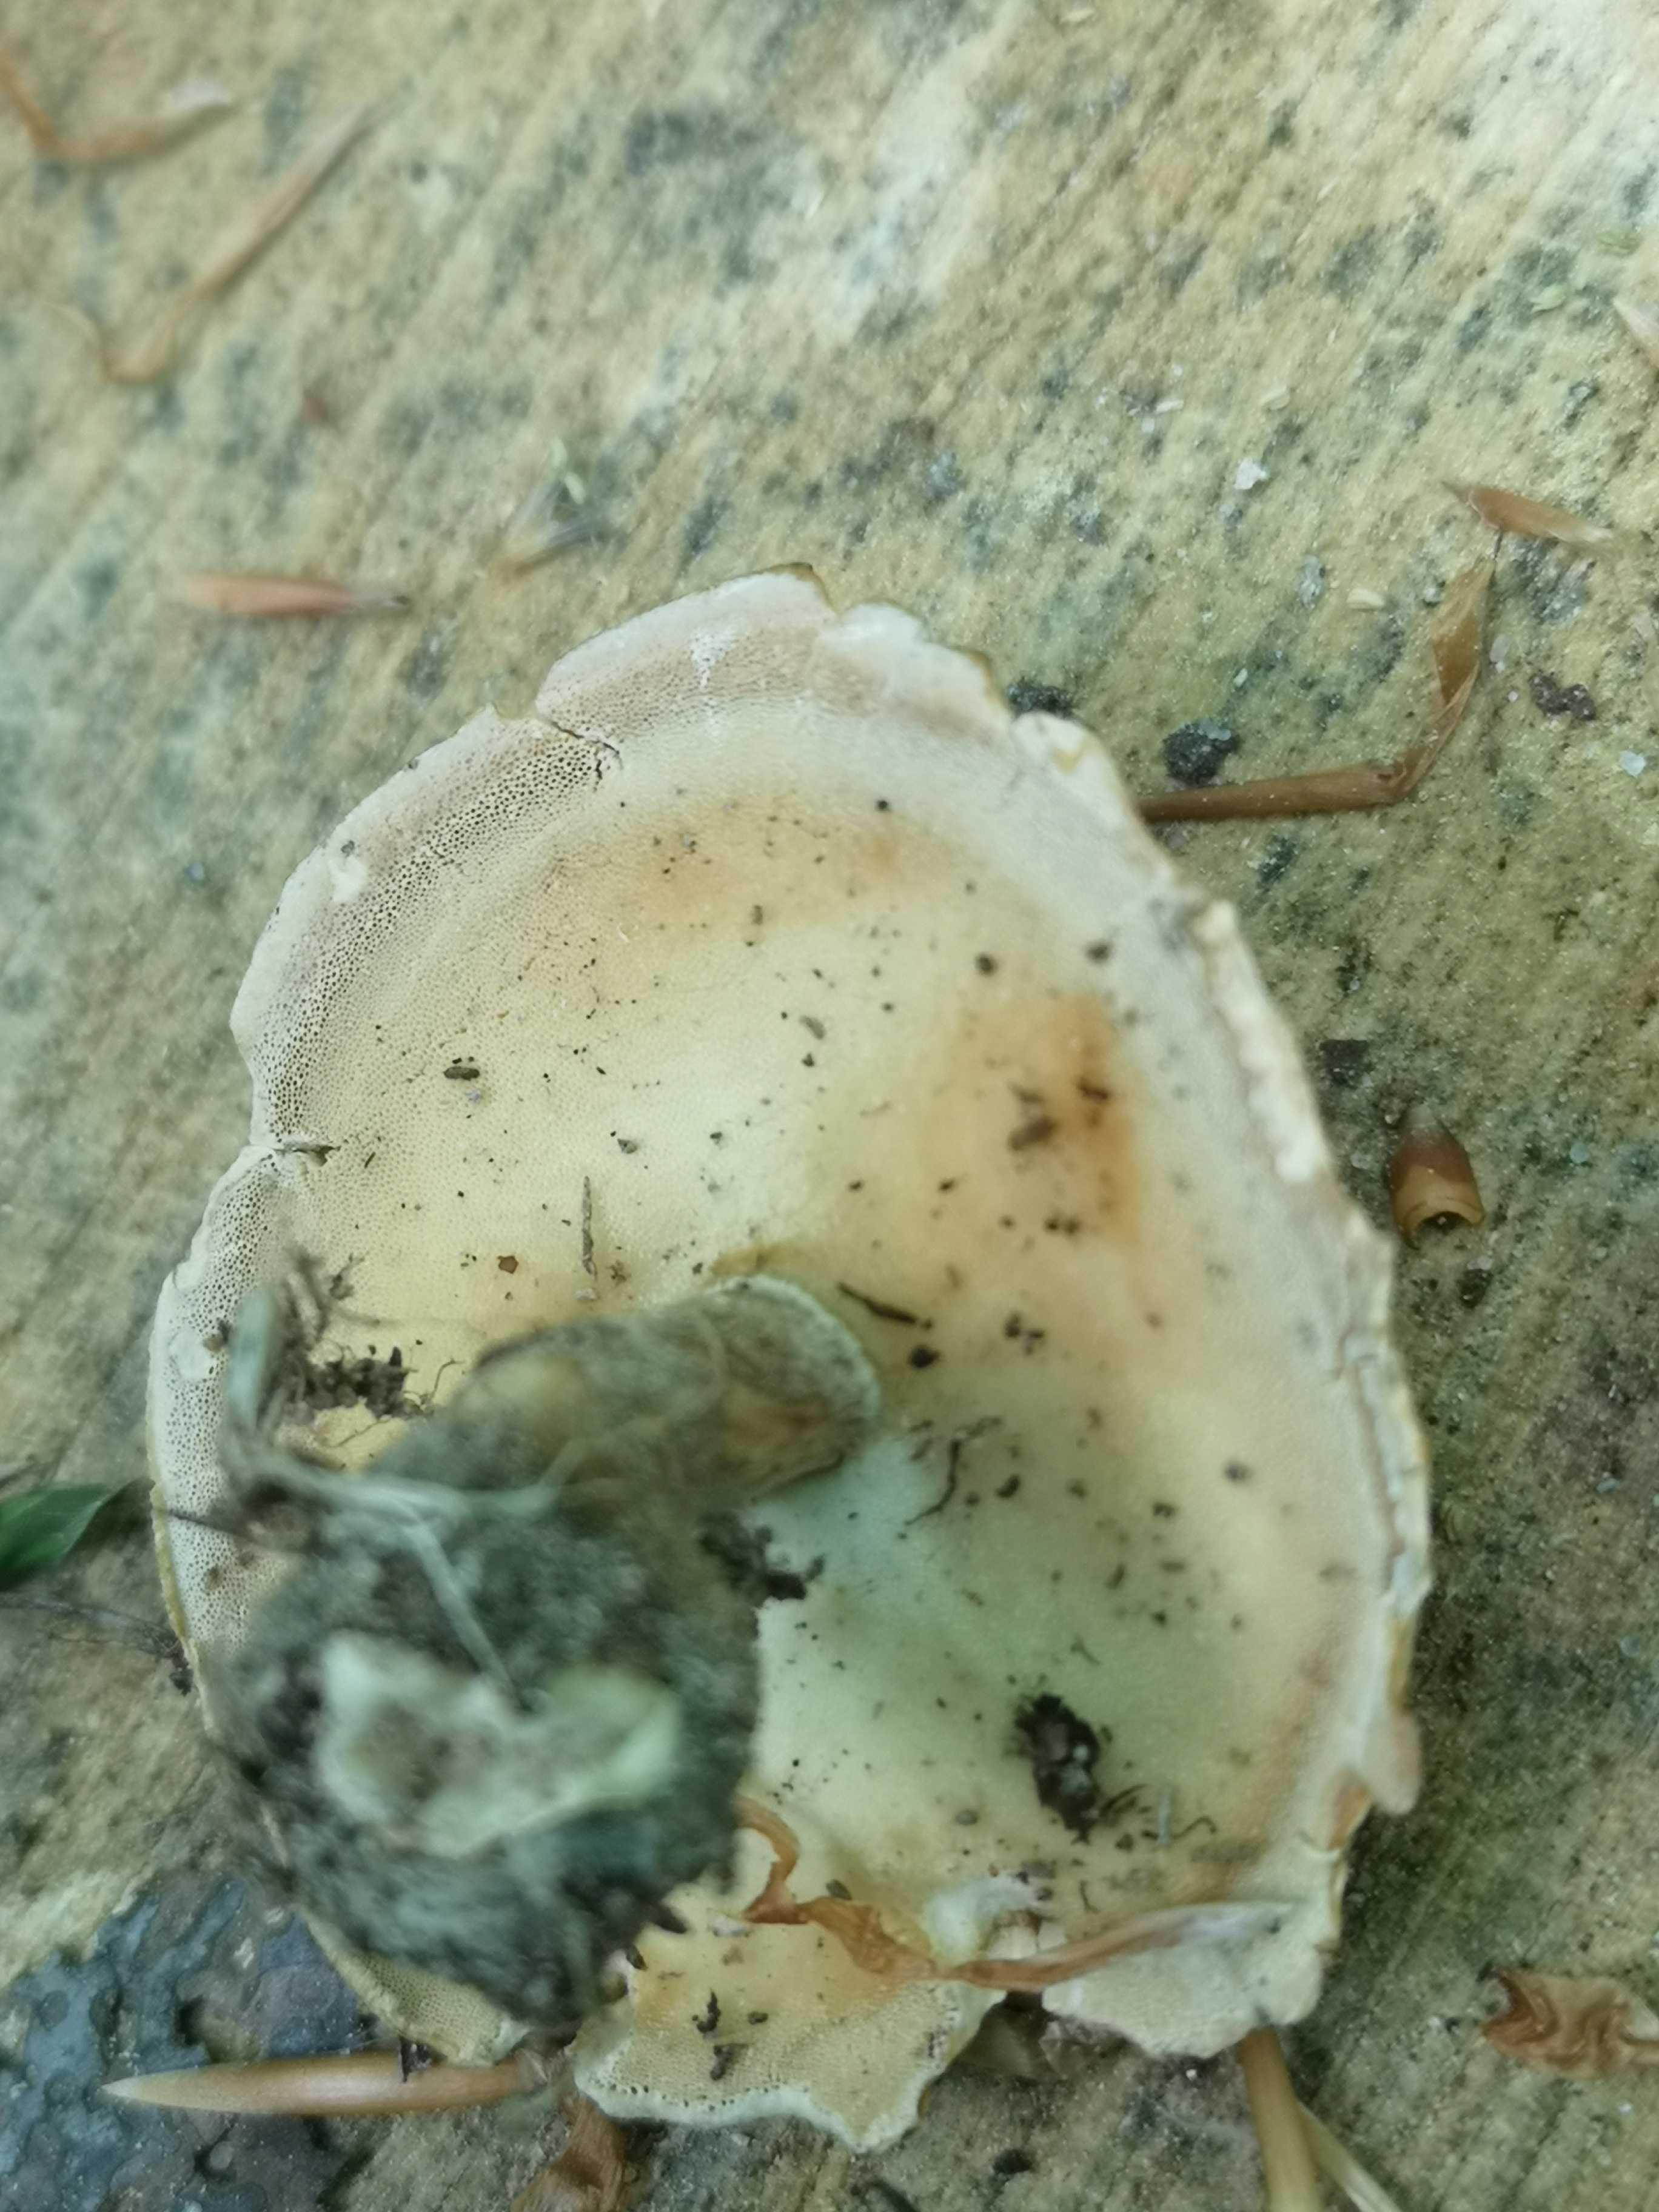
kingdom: Fungi
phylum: Basidiomycota
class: Agaricomycetes
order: Polyporales
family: Polyporaceae
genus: Lentinus
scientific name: Lentinus substrictus
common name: forårs-stilkporesvamp
